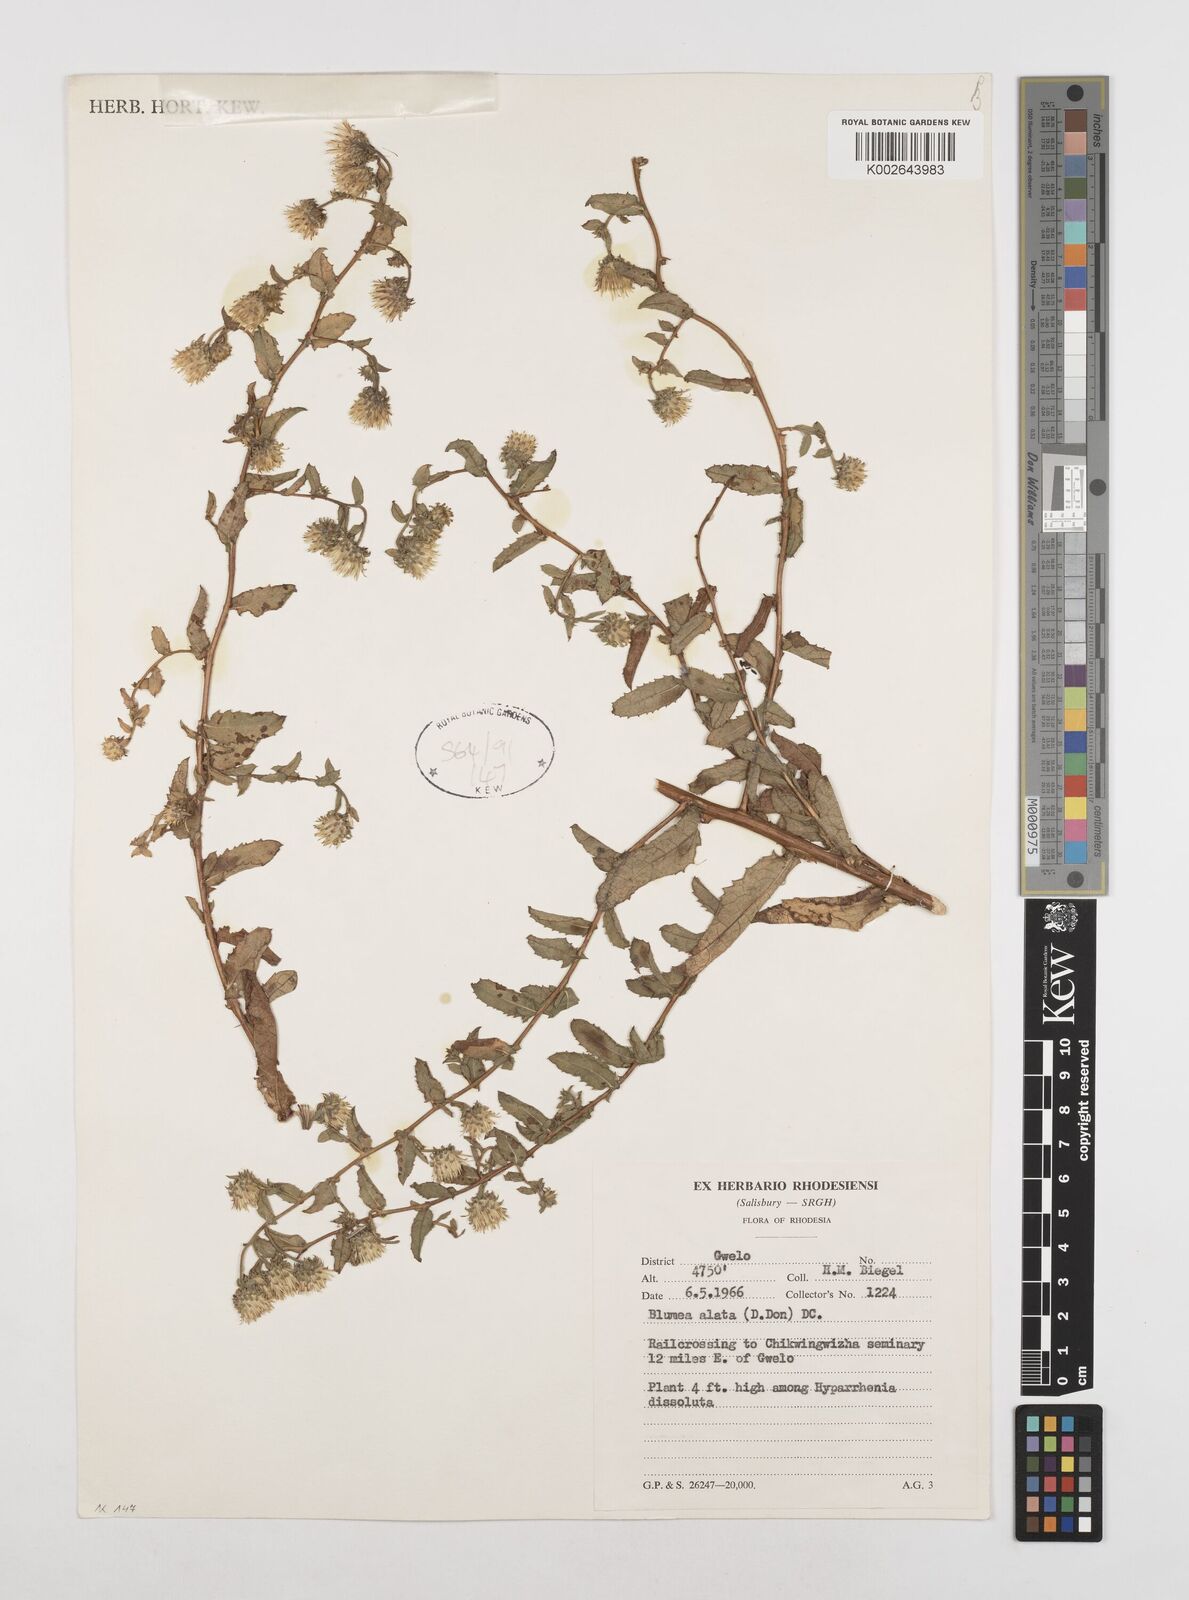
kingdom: Plantae
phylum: Tracheophyta
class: Magnoliopsida
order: Asterales
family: Asteraceae
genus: Laggera
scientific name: Laggera crispata
